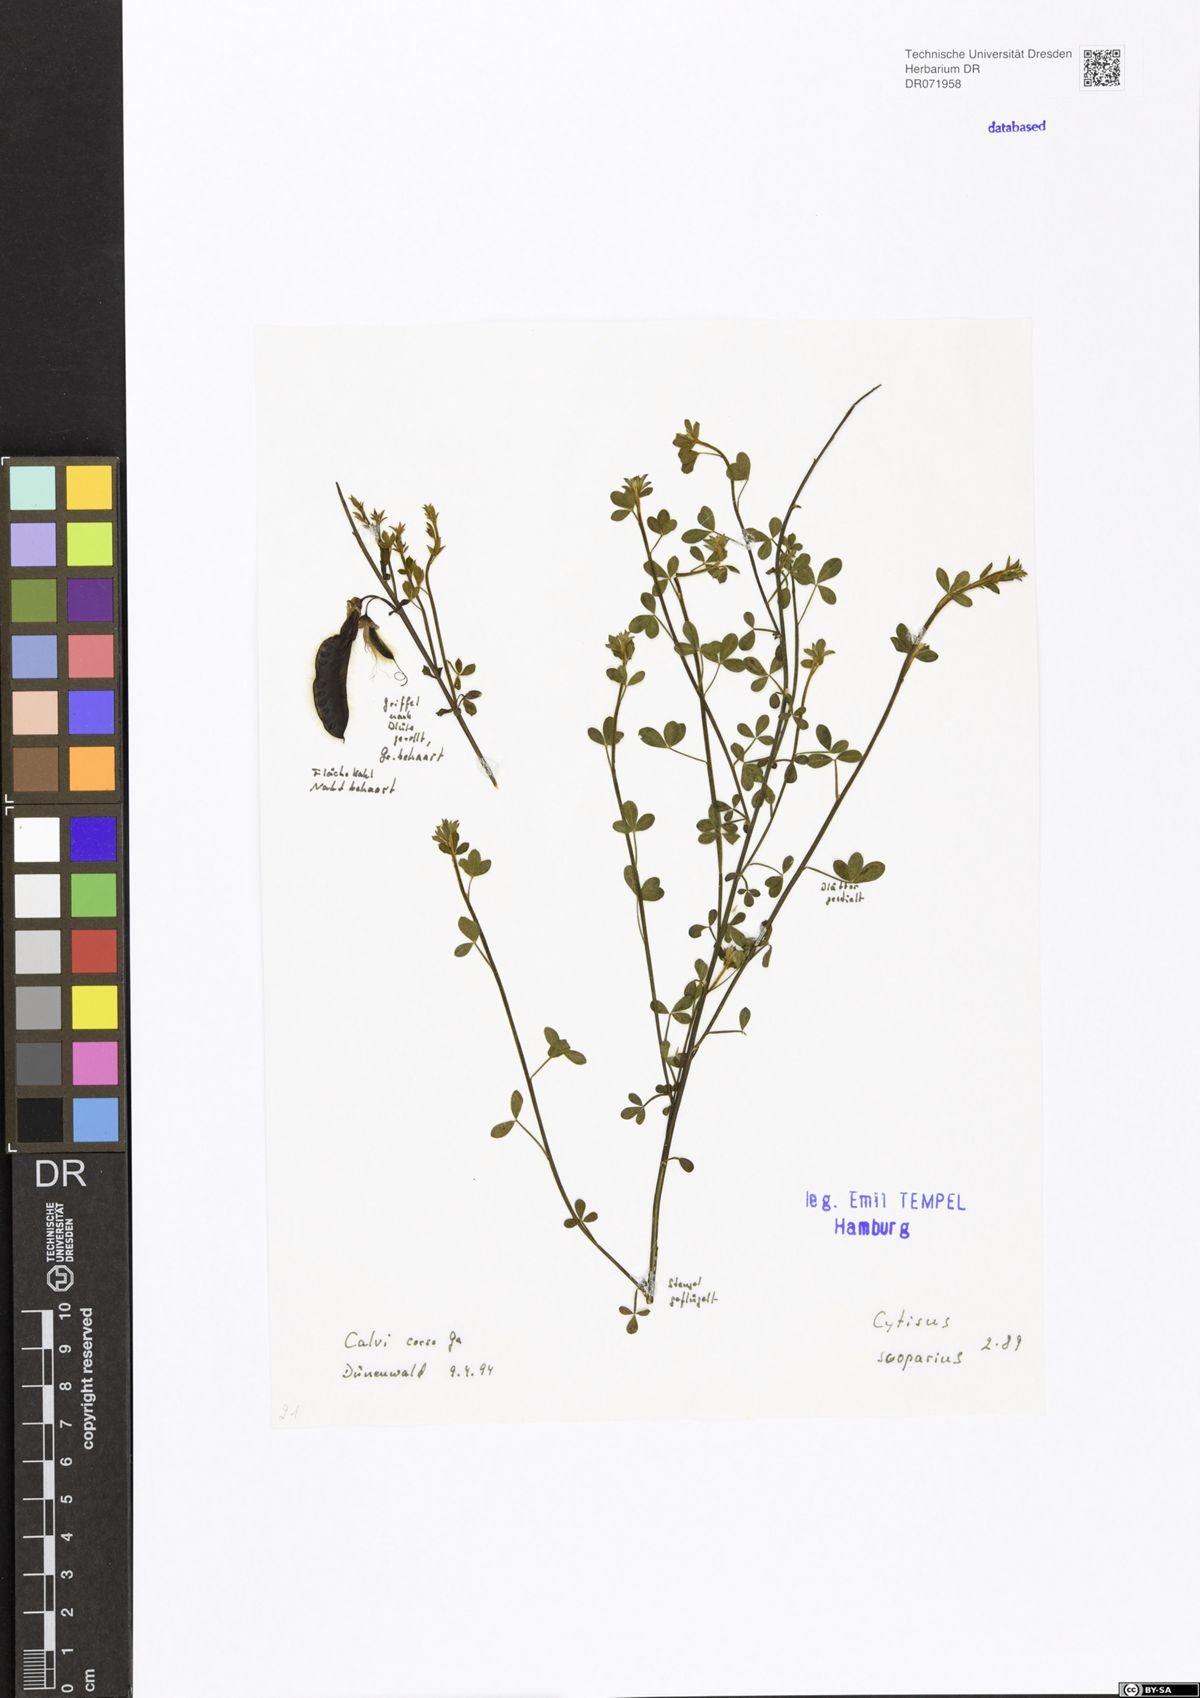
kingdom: Plantae
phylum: Tracheophyta
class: Magnoliopsida
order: Fabales
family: Fabaceae
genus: Cytisus
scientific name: Cytisus scoparius
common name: Scotch broom
